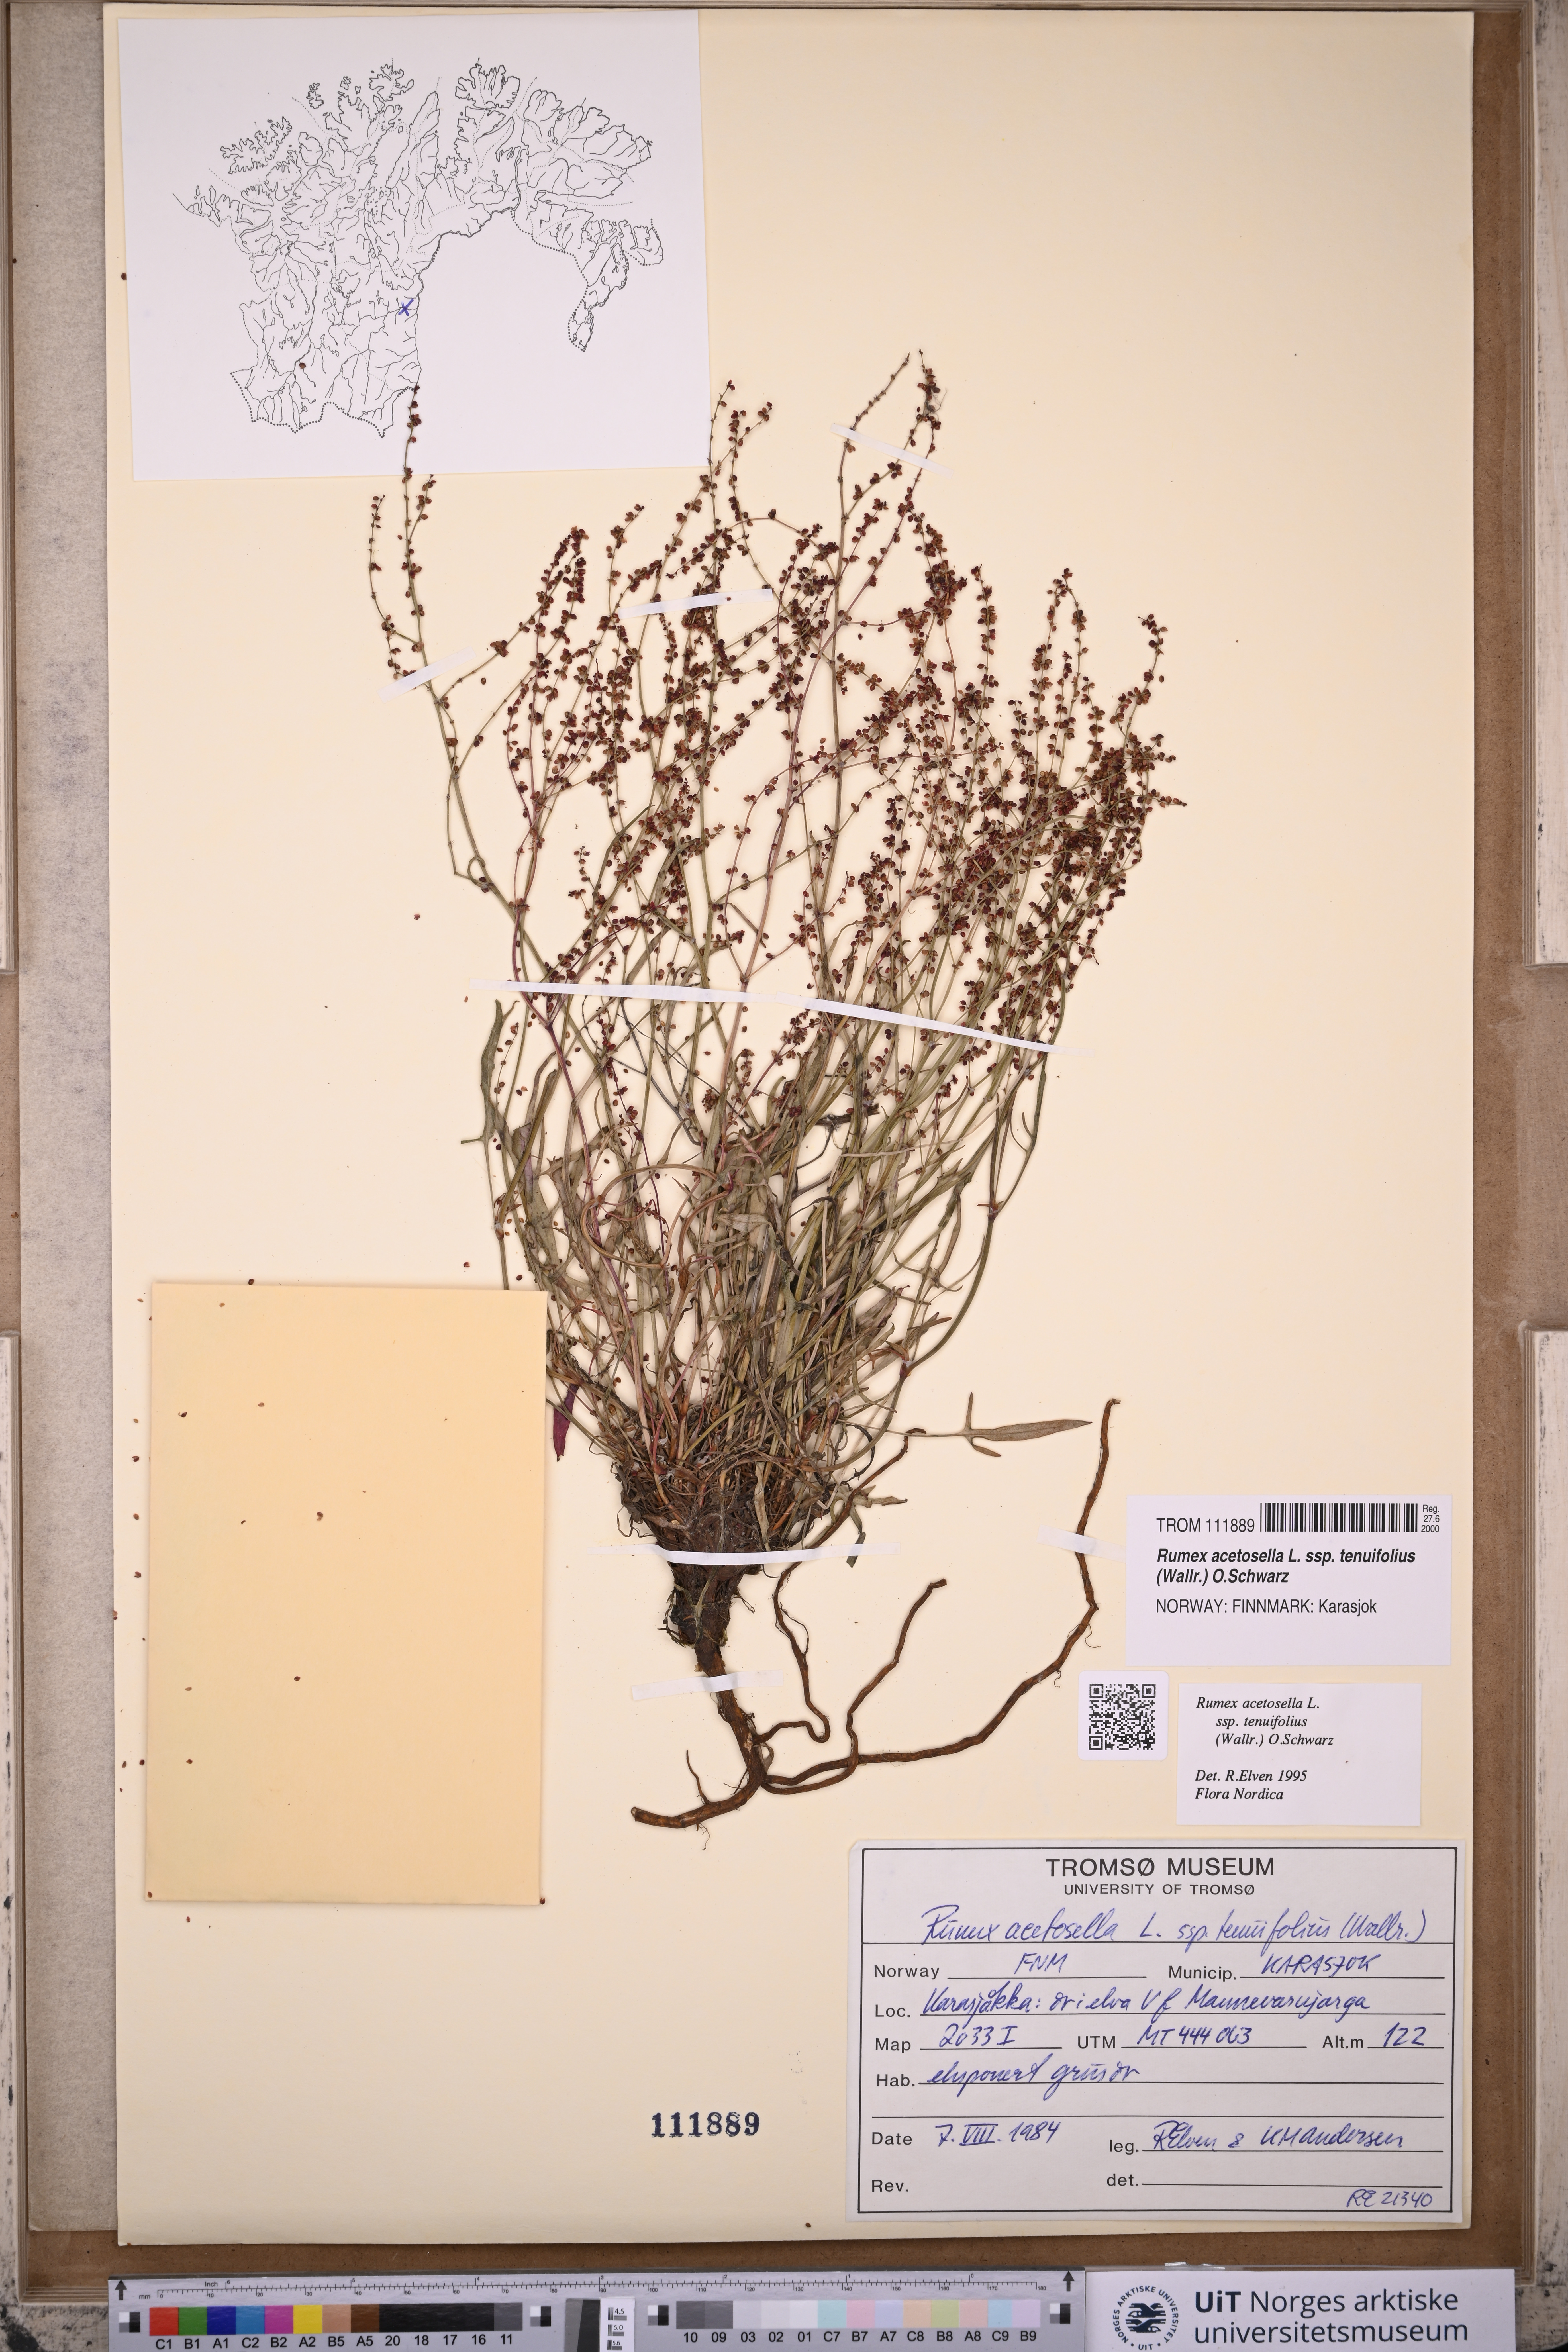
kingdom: Plantae
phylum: Tracheophyta
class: Magnoliopsida
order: Caryophyllales
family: Polygonaceae
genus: Rumex
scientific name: Rumex acetosella
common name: Common sheep sorrel
